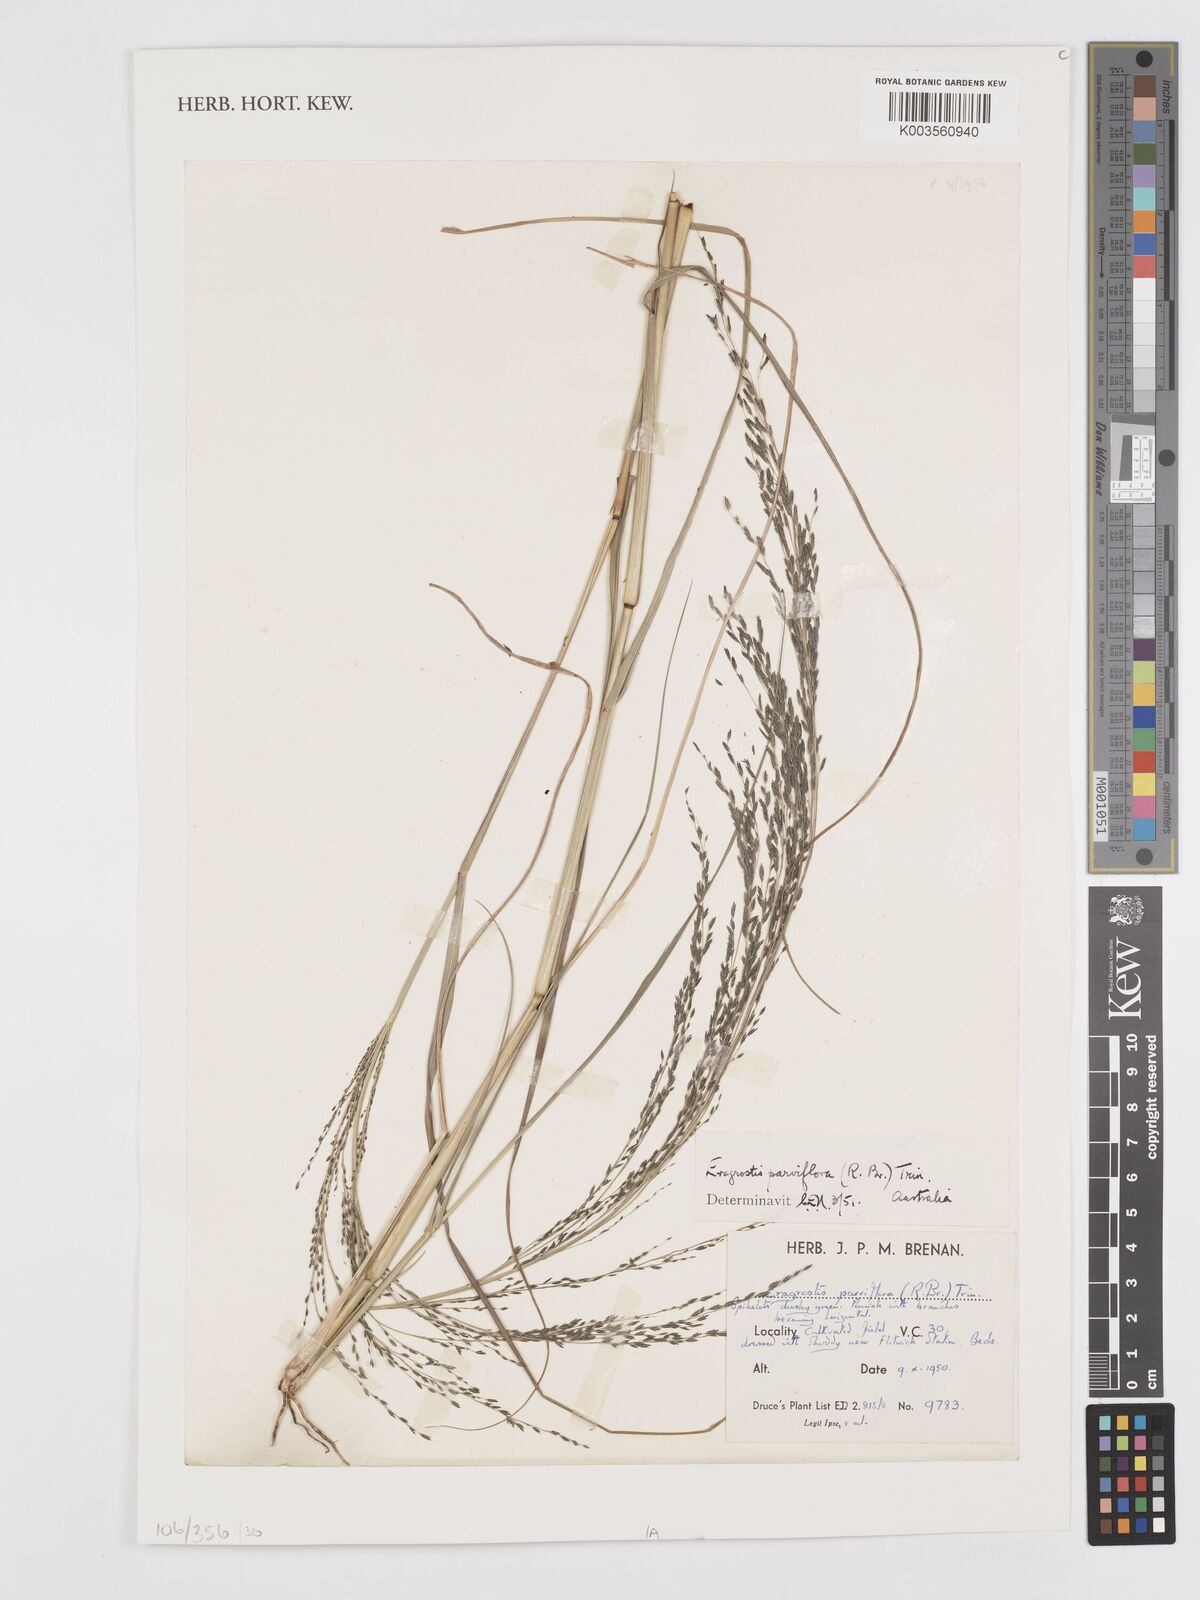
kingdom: Plantae
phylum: Tracheophyta
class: Liliopsida
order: Poales
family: Poaceae
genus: Eragrostis
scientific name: Eragrostis parviflora
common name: Weeping love-grass
